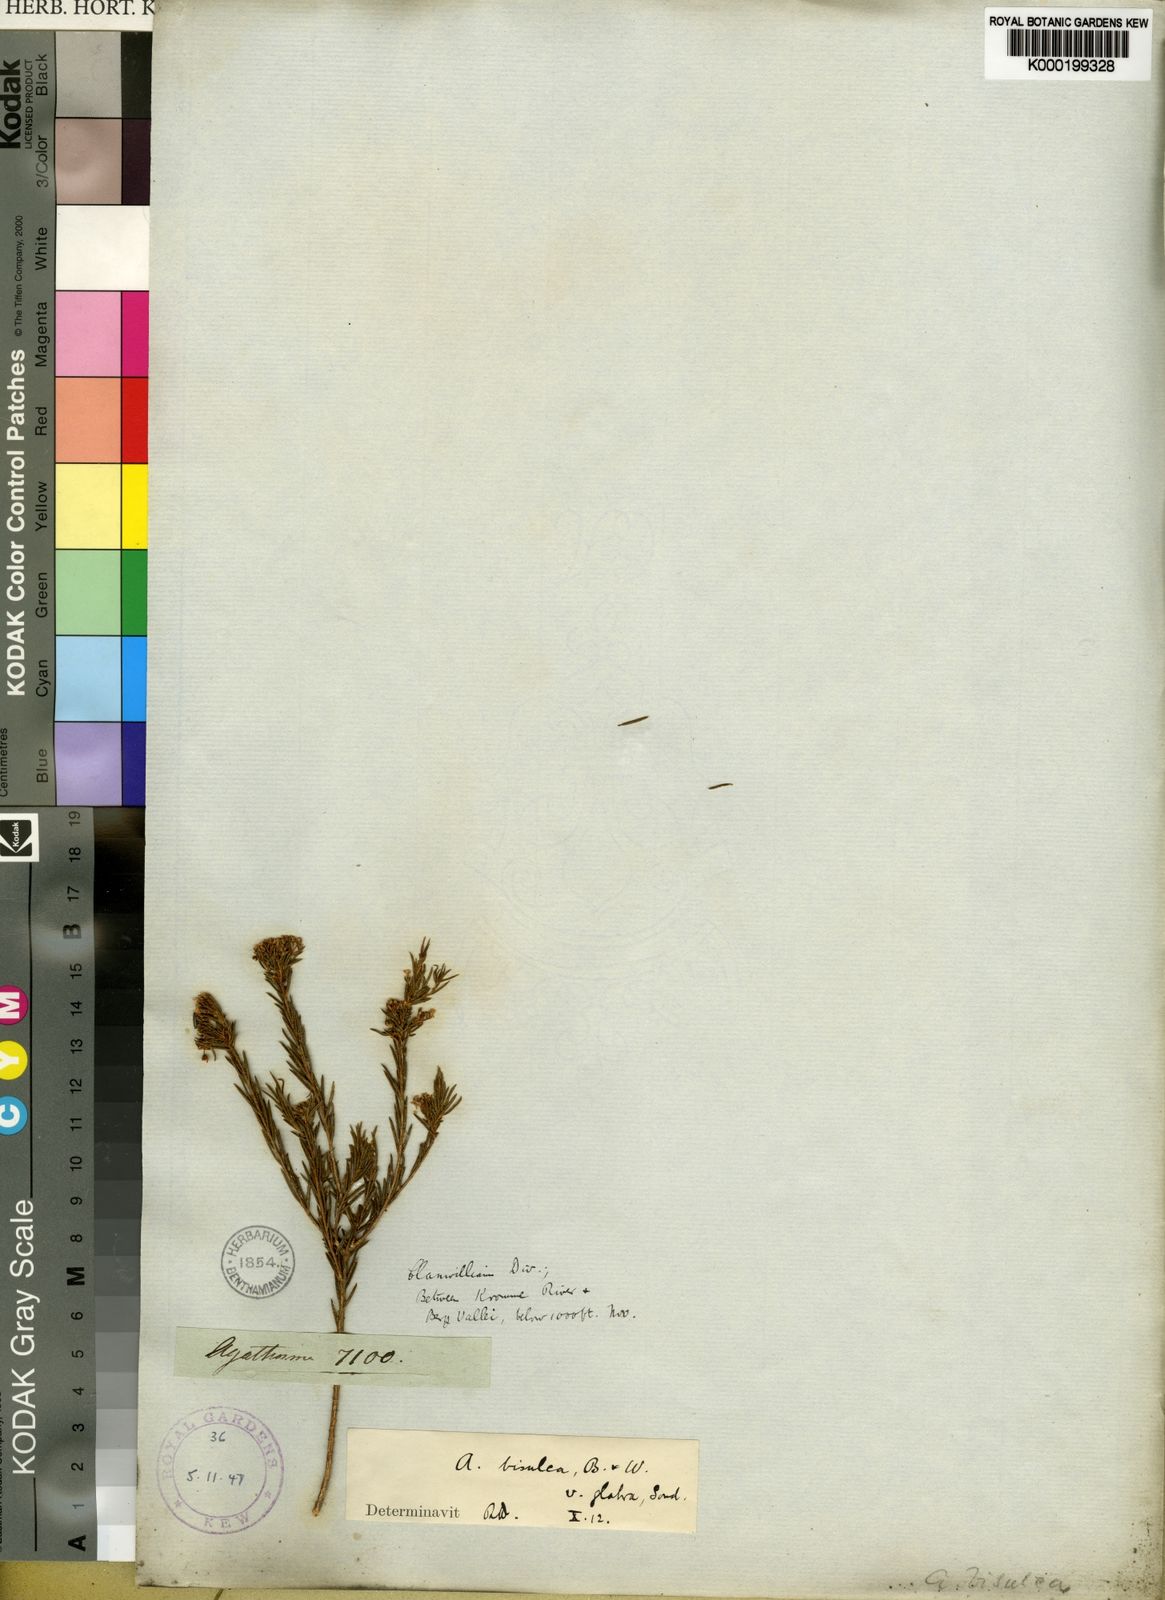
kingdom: Plantae
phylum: Tracheophyta
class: Magnoliopsida
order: Sapindales
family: Rutaceae
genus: Agathosma
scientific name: Agathosma bisulca
